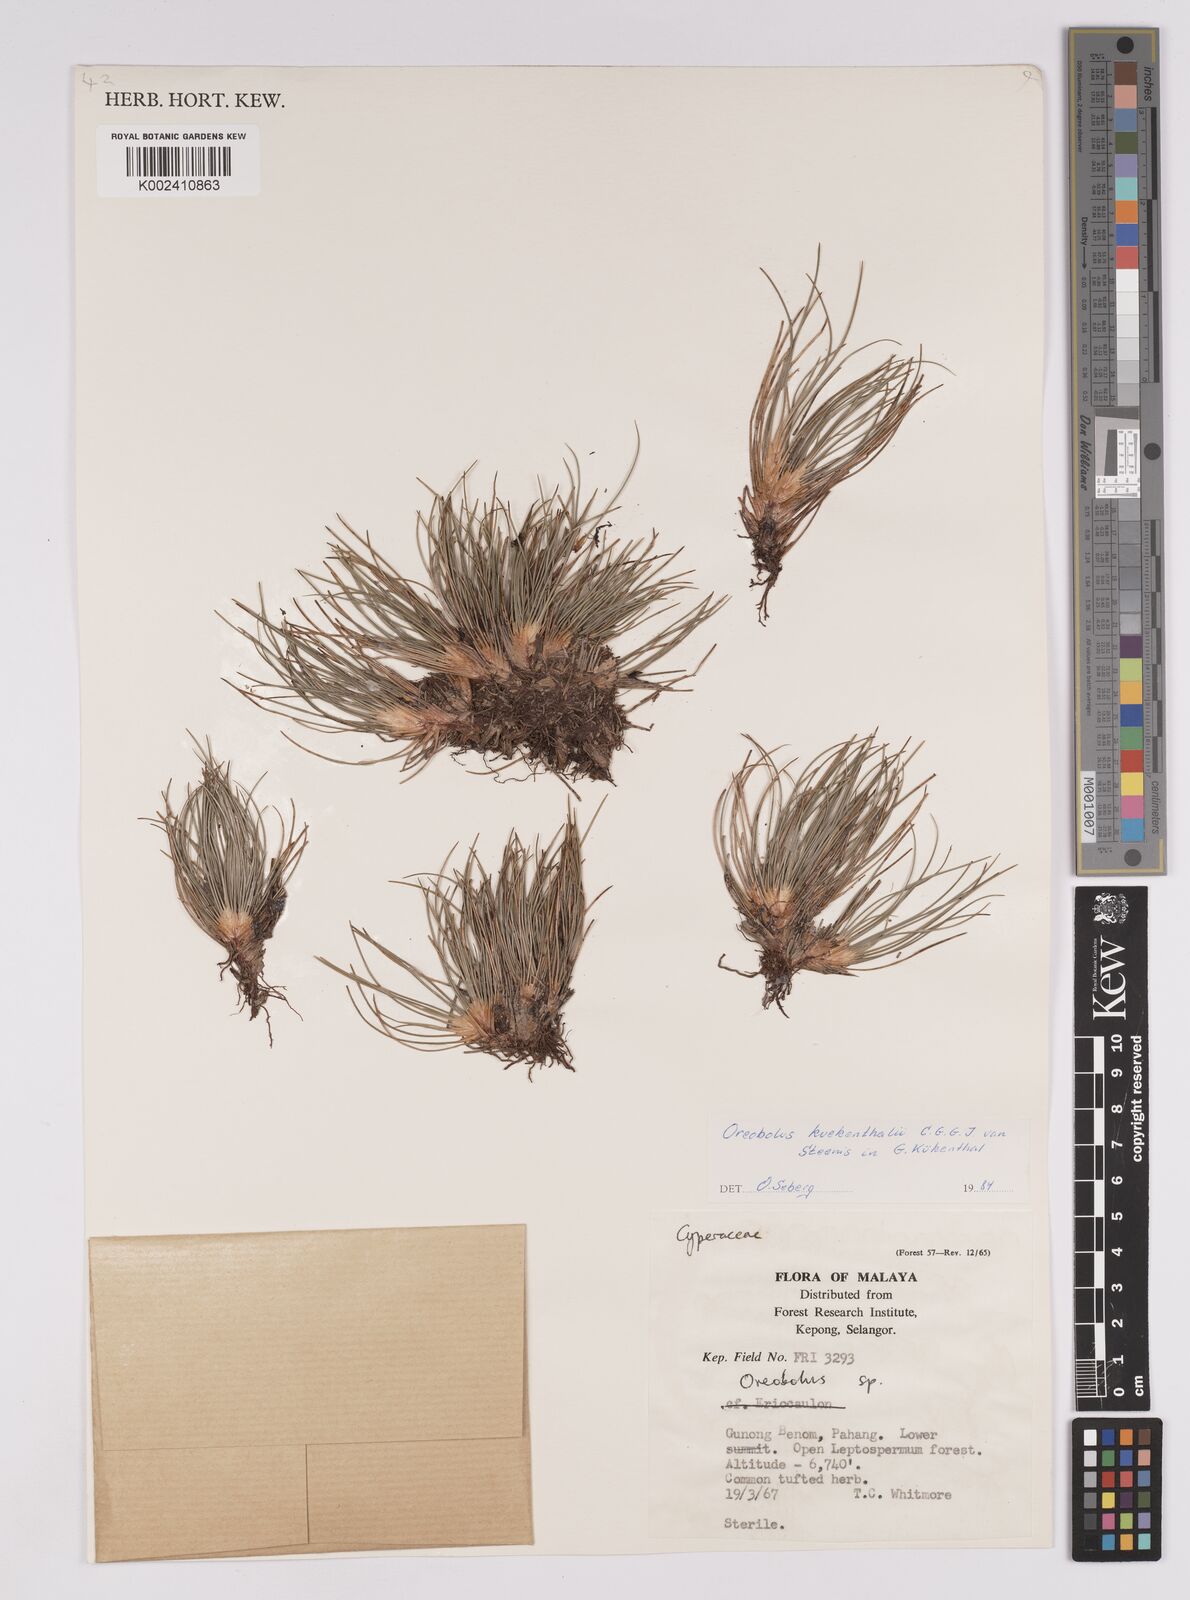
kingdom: Plantae
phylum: Tracheophyta
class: Liliopsida
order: Poales
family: Cyperaceae
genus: Oreobolus
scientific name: Oreobolus
